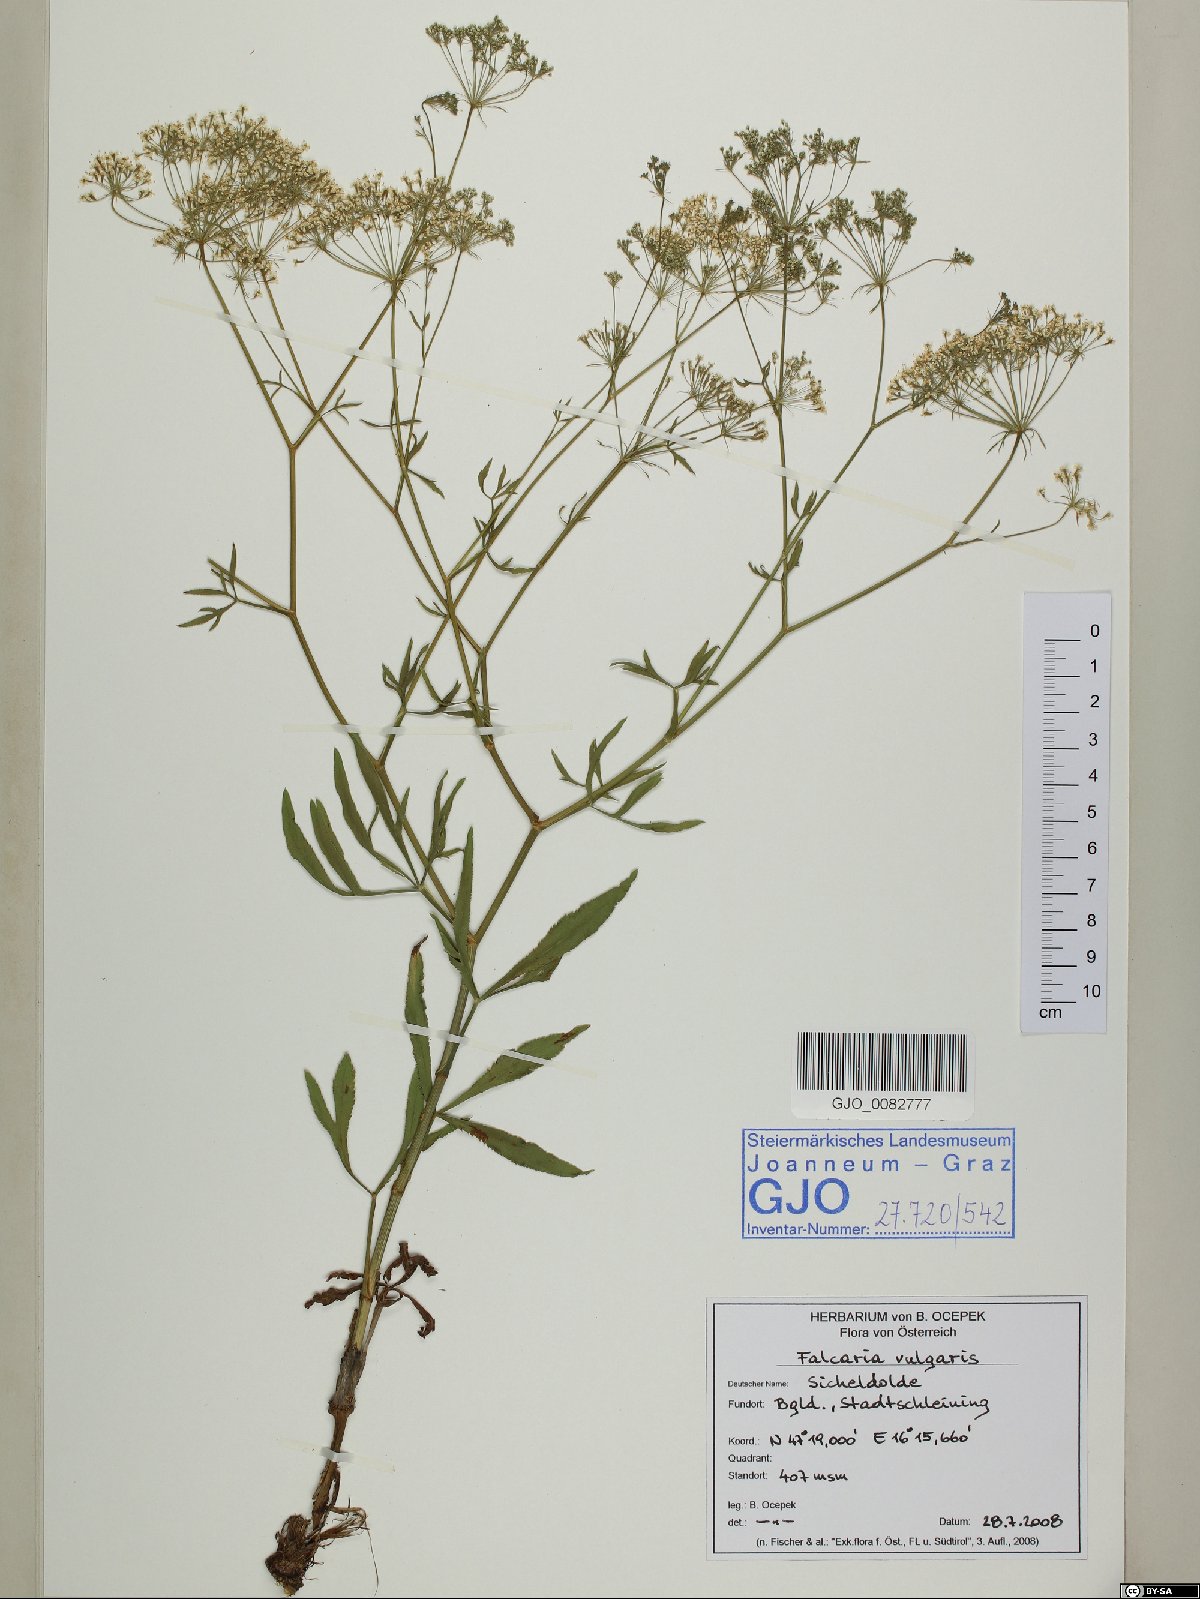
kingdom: Plantae
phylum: Tracheophyta
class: Magnoliopsida
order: Apiales
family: Apiaceae
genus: Falcaria
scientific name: Falcaria vulgaris
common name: Longleaf
